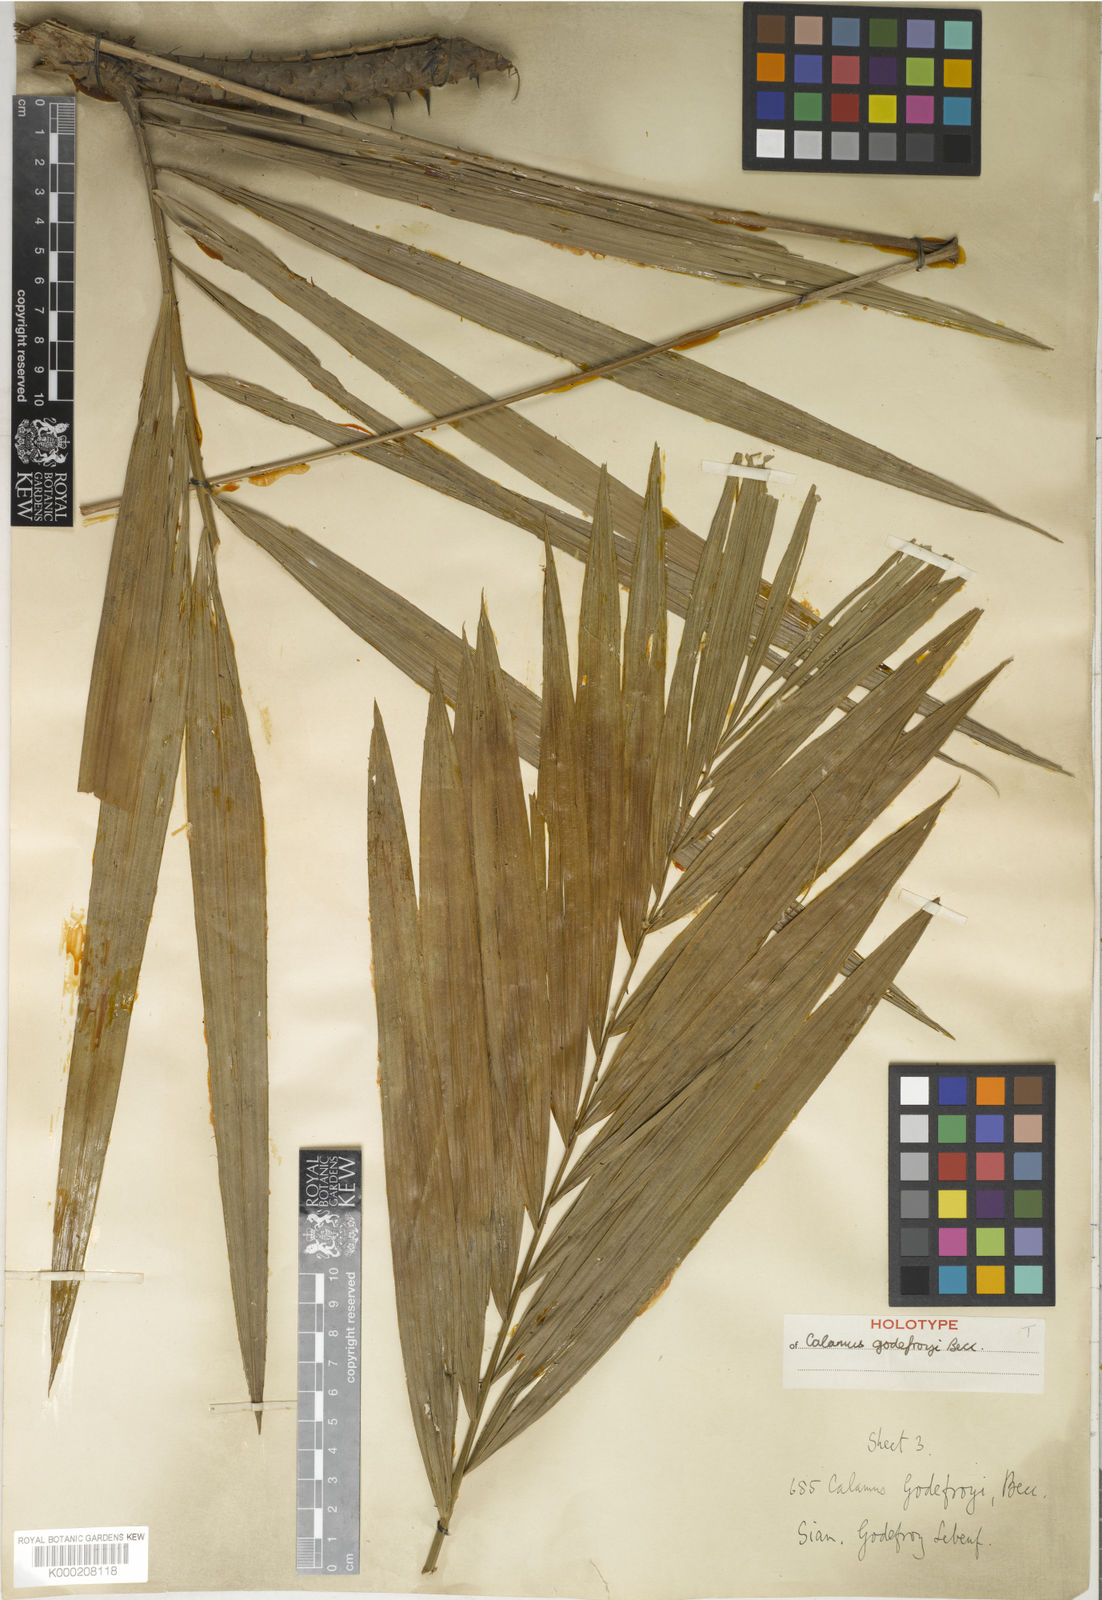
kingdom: Plantae
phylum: Tracheophyta
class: Liliopsida
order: Arecales
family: Arecaceae
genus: Calamus
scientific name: Calamus godefroyi
